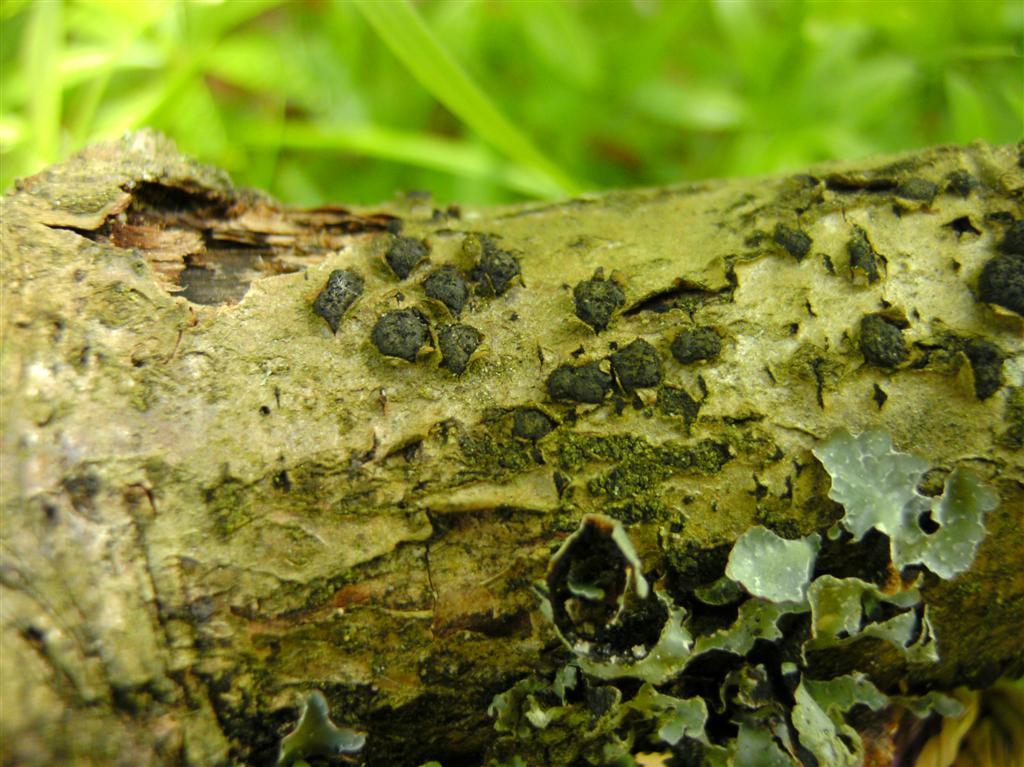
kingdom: Fungi
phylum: Ascomycota
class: Sordariomycetes
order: Xylariales
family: Diatrypaceae
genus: Diatrypella
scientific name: Diatrypella quercina
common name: ege-kulskorpe
